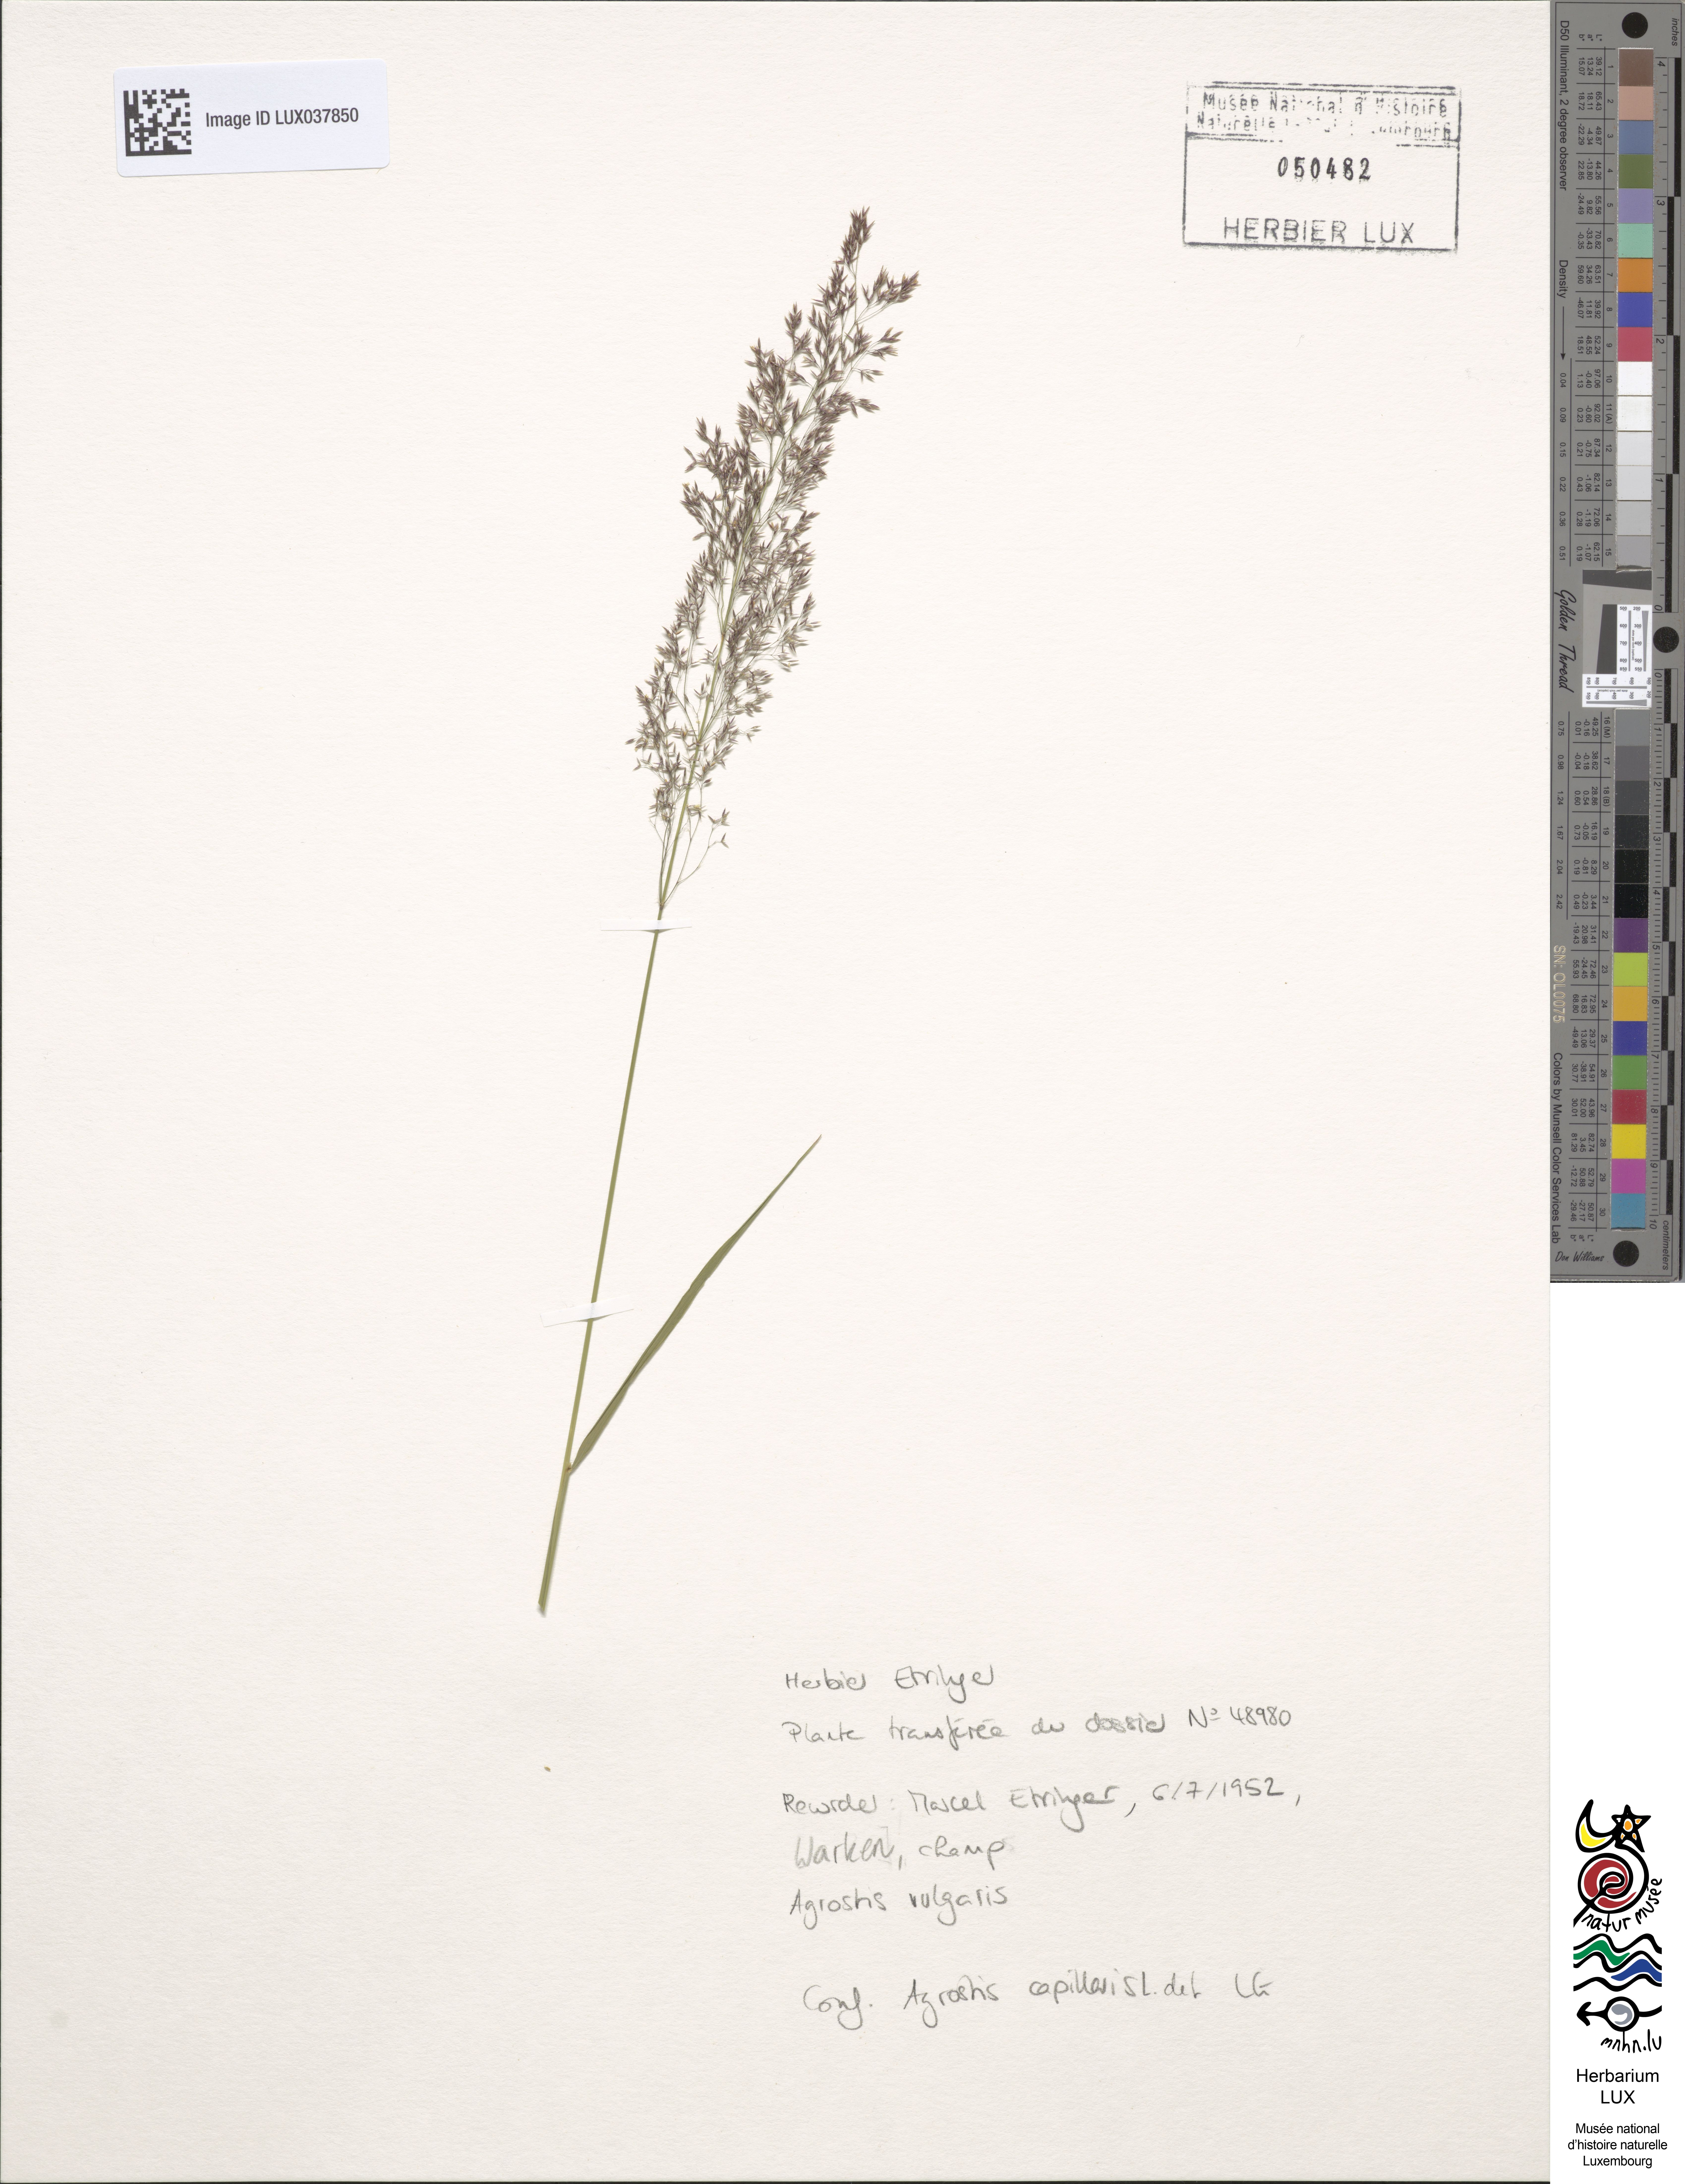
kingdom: Plantae
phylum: Tracheophyta
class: Liliopsida
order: Poales
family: Poaceae
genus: Agrostis
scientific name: Agrostis capillaris
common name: Colonial bentgrass
